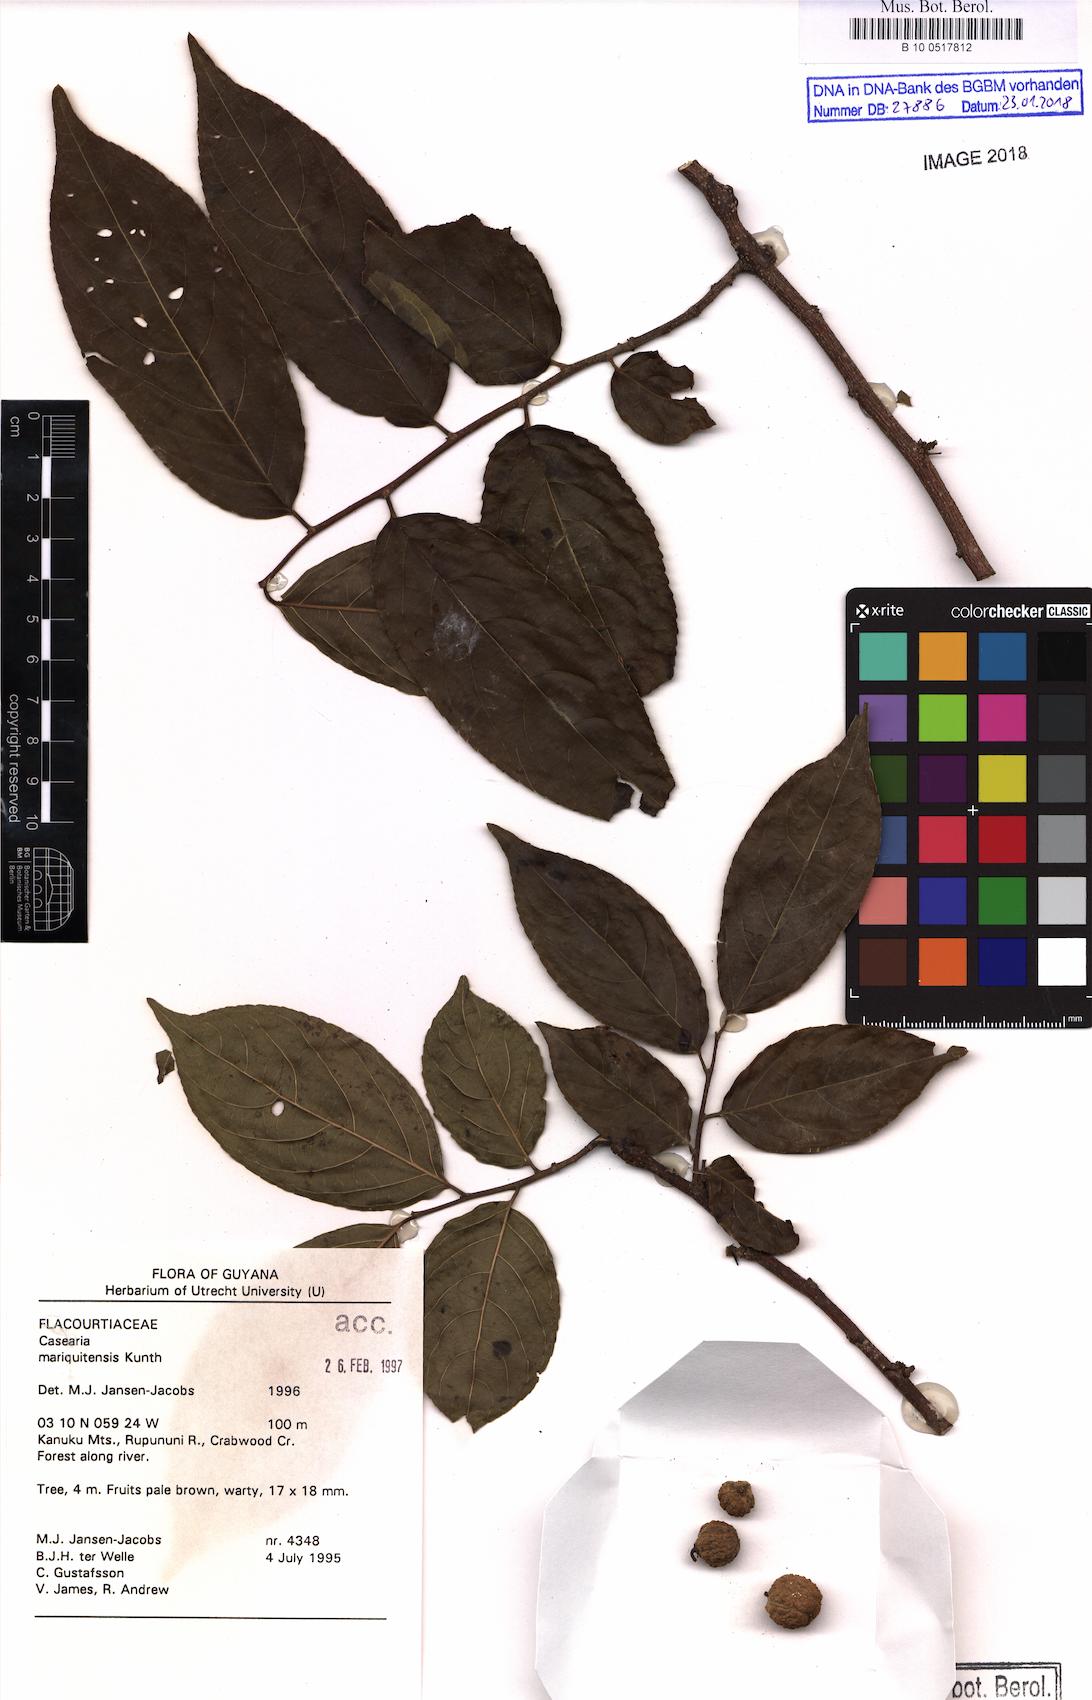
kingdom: Plantae
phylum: Tracheophyta
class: Magnoliopsida
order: Malpighiales
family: Salicaceae
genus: Casearia
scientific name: Casearia mariquitensis
